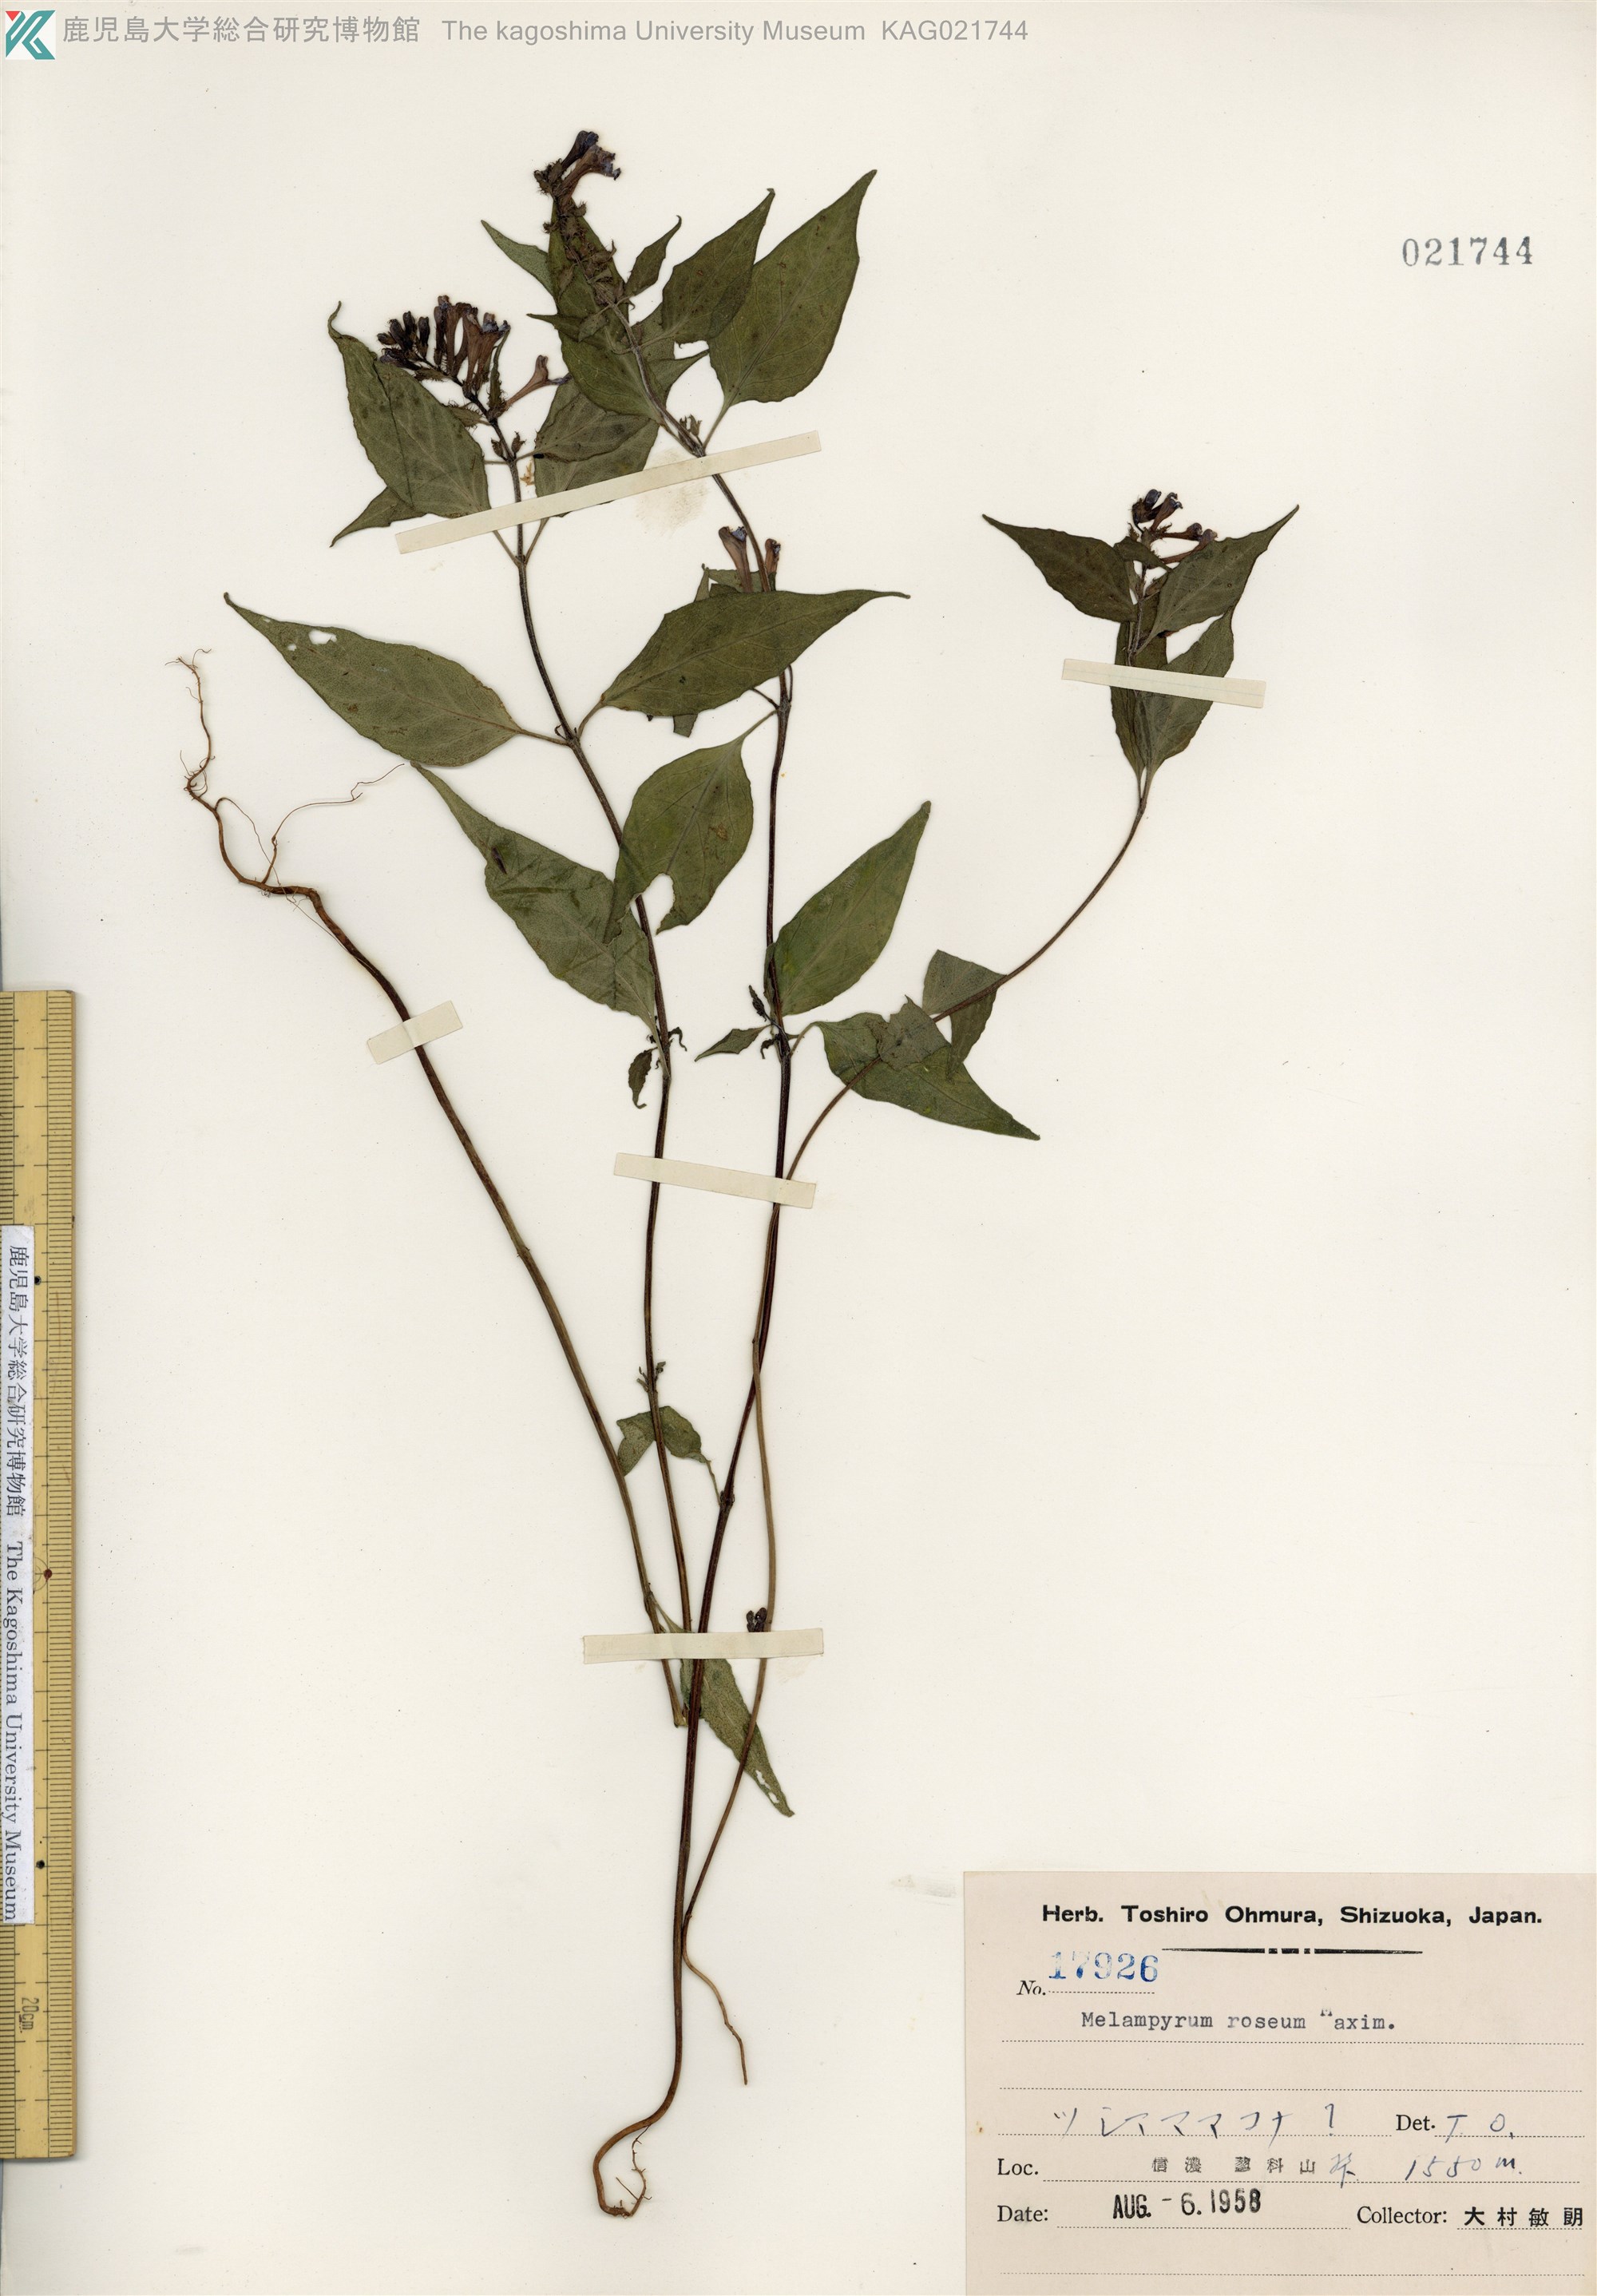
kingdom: Plantae
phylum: Tracheophyta
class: Magnoliopsida
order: Lamiales
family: Orobanchaceae
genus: Melampyrum
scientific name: Melampyrum roseum
